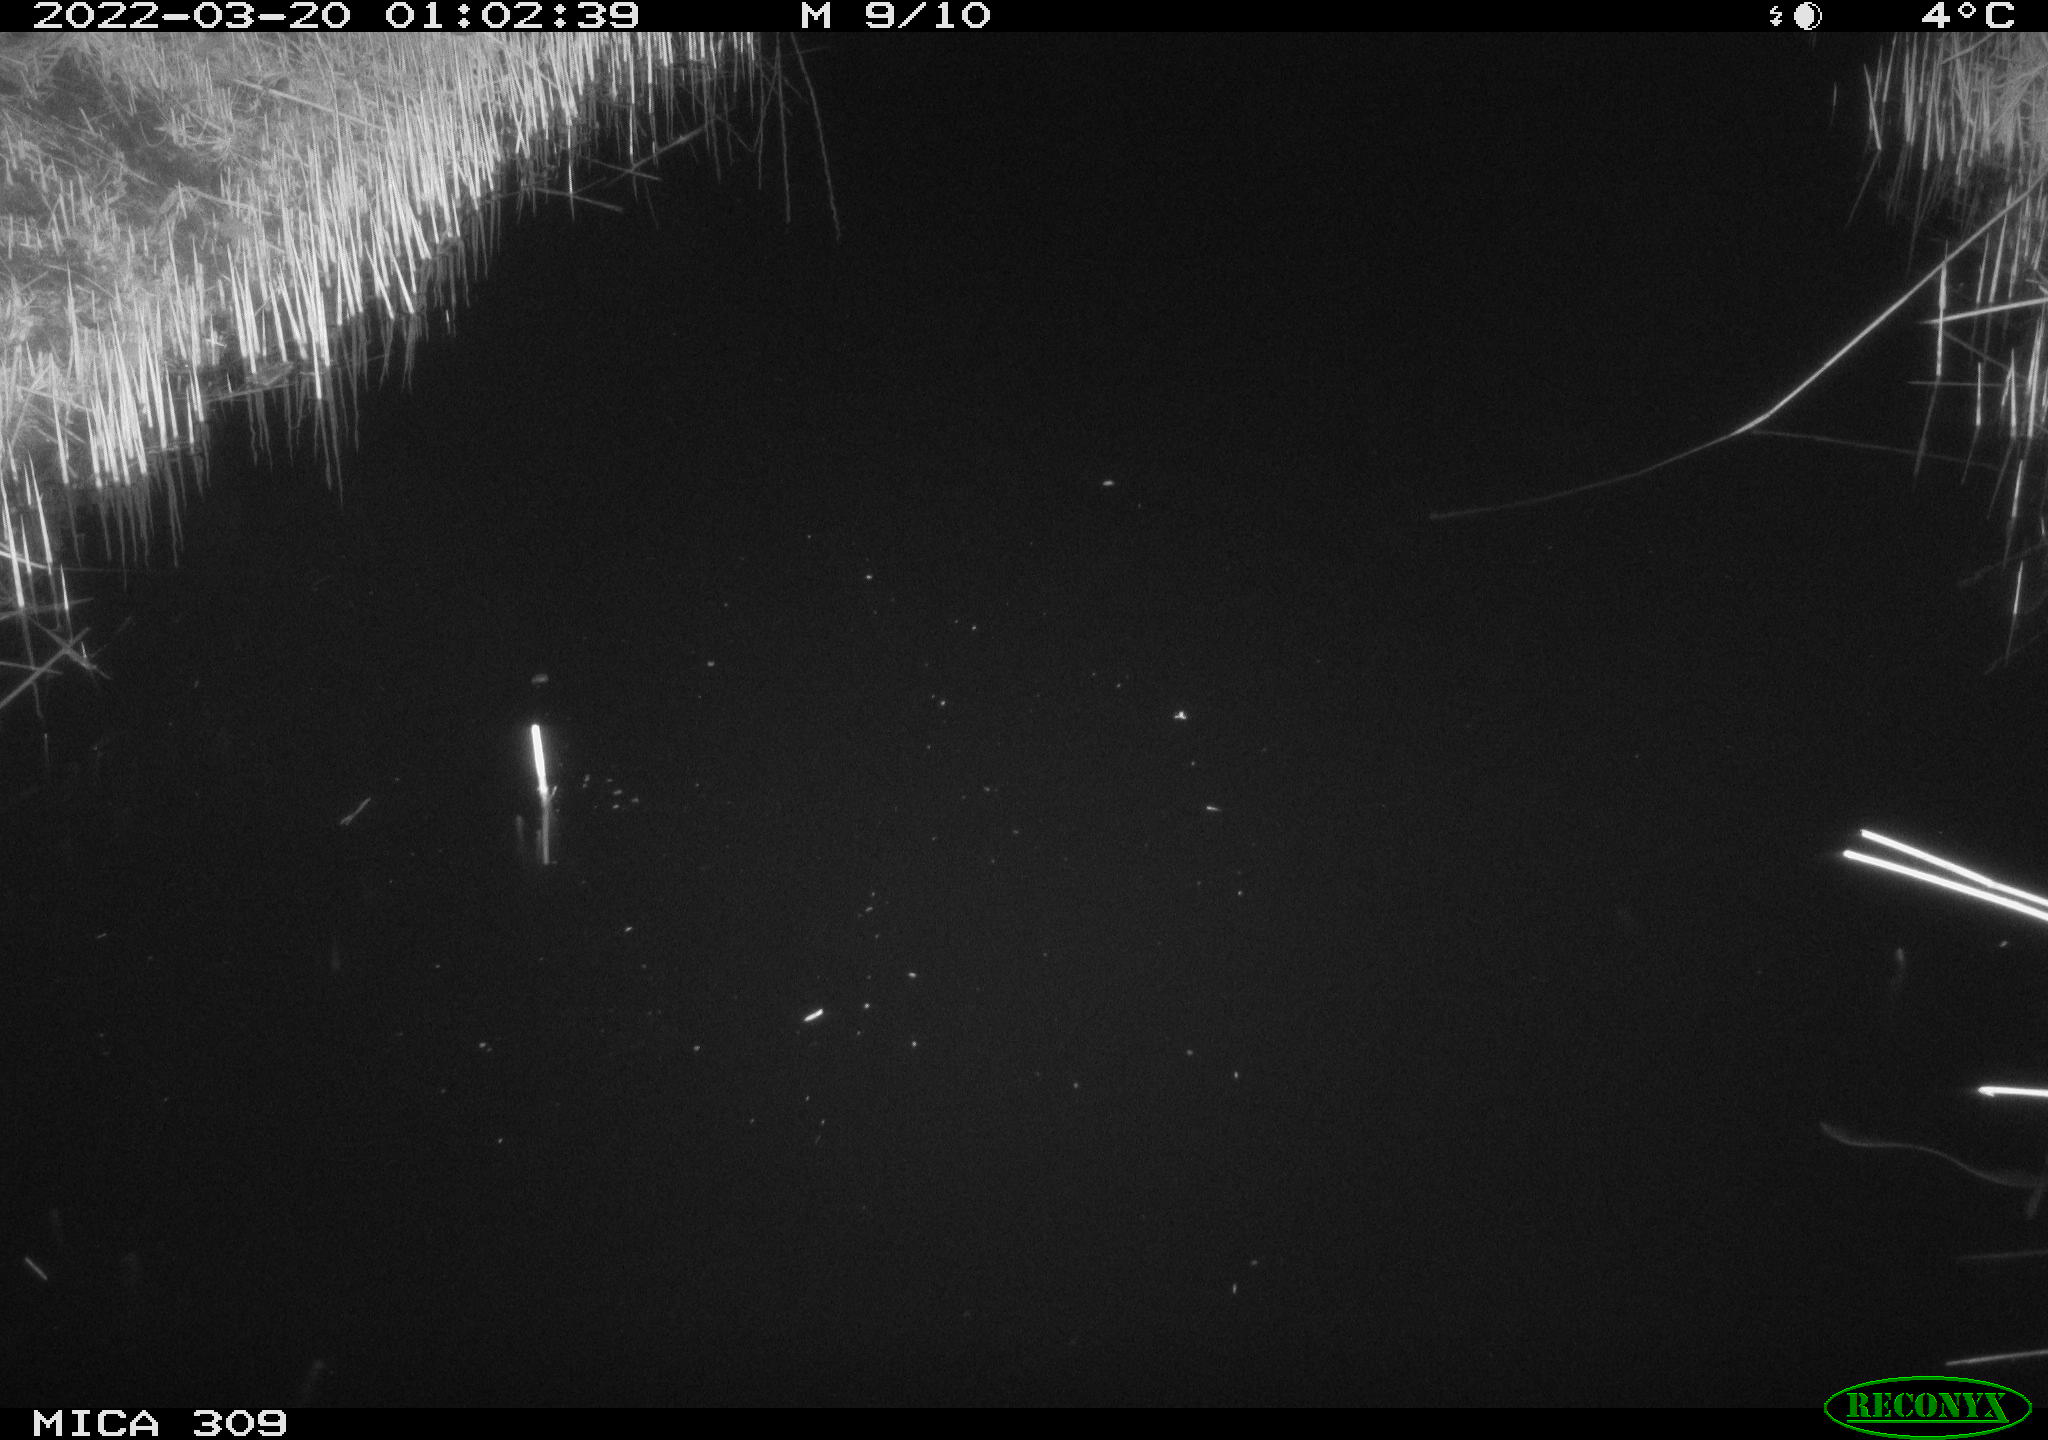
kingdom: Animalia
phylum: Chordata
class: Mammalia
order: Rodentia
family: Cricetidae
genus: Ondatra
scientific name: Ondatra zibethicus
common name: Muskrat
